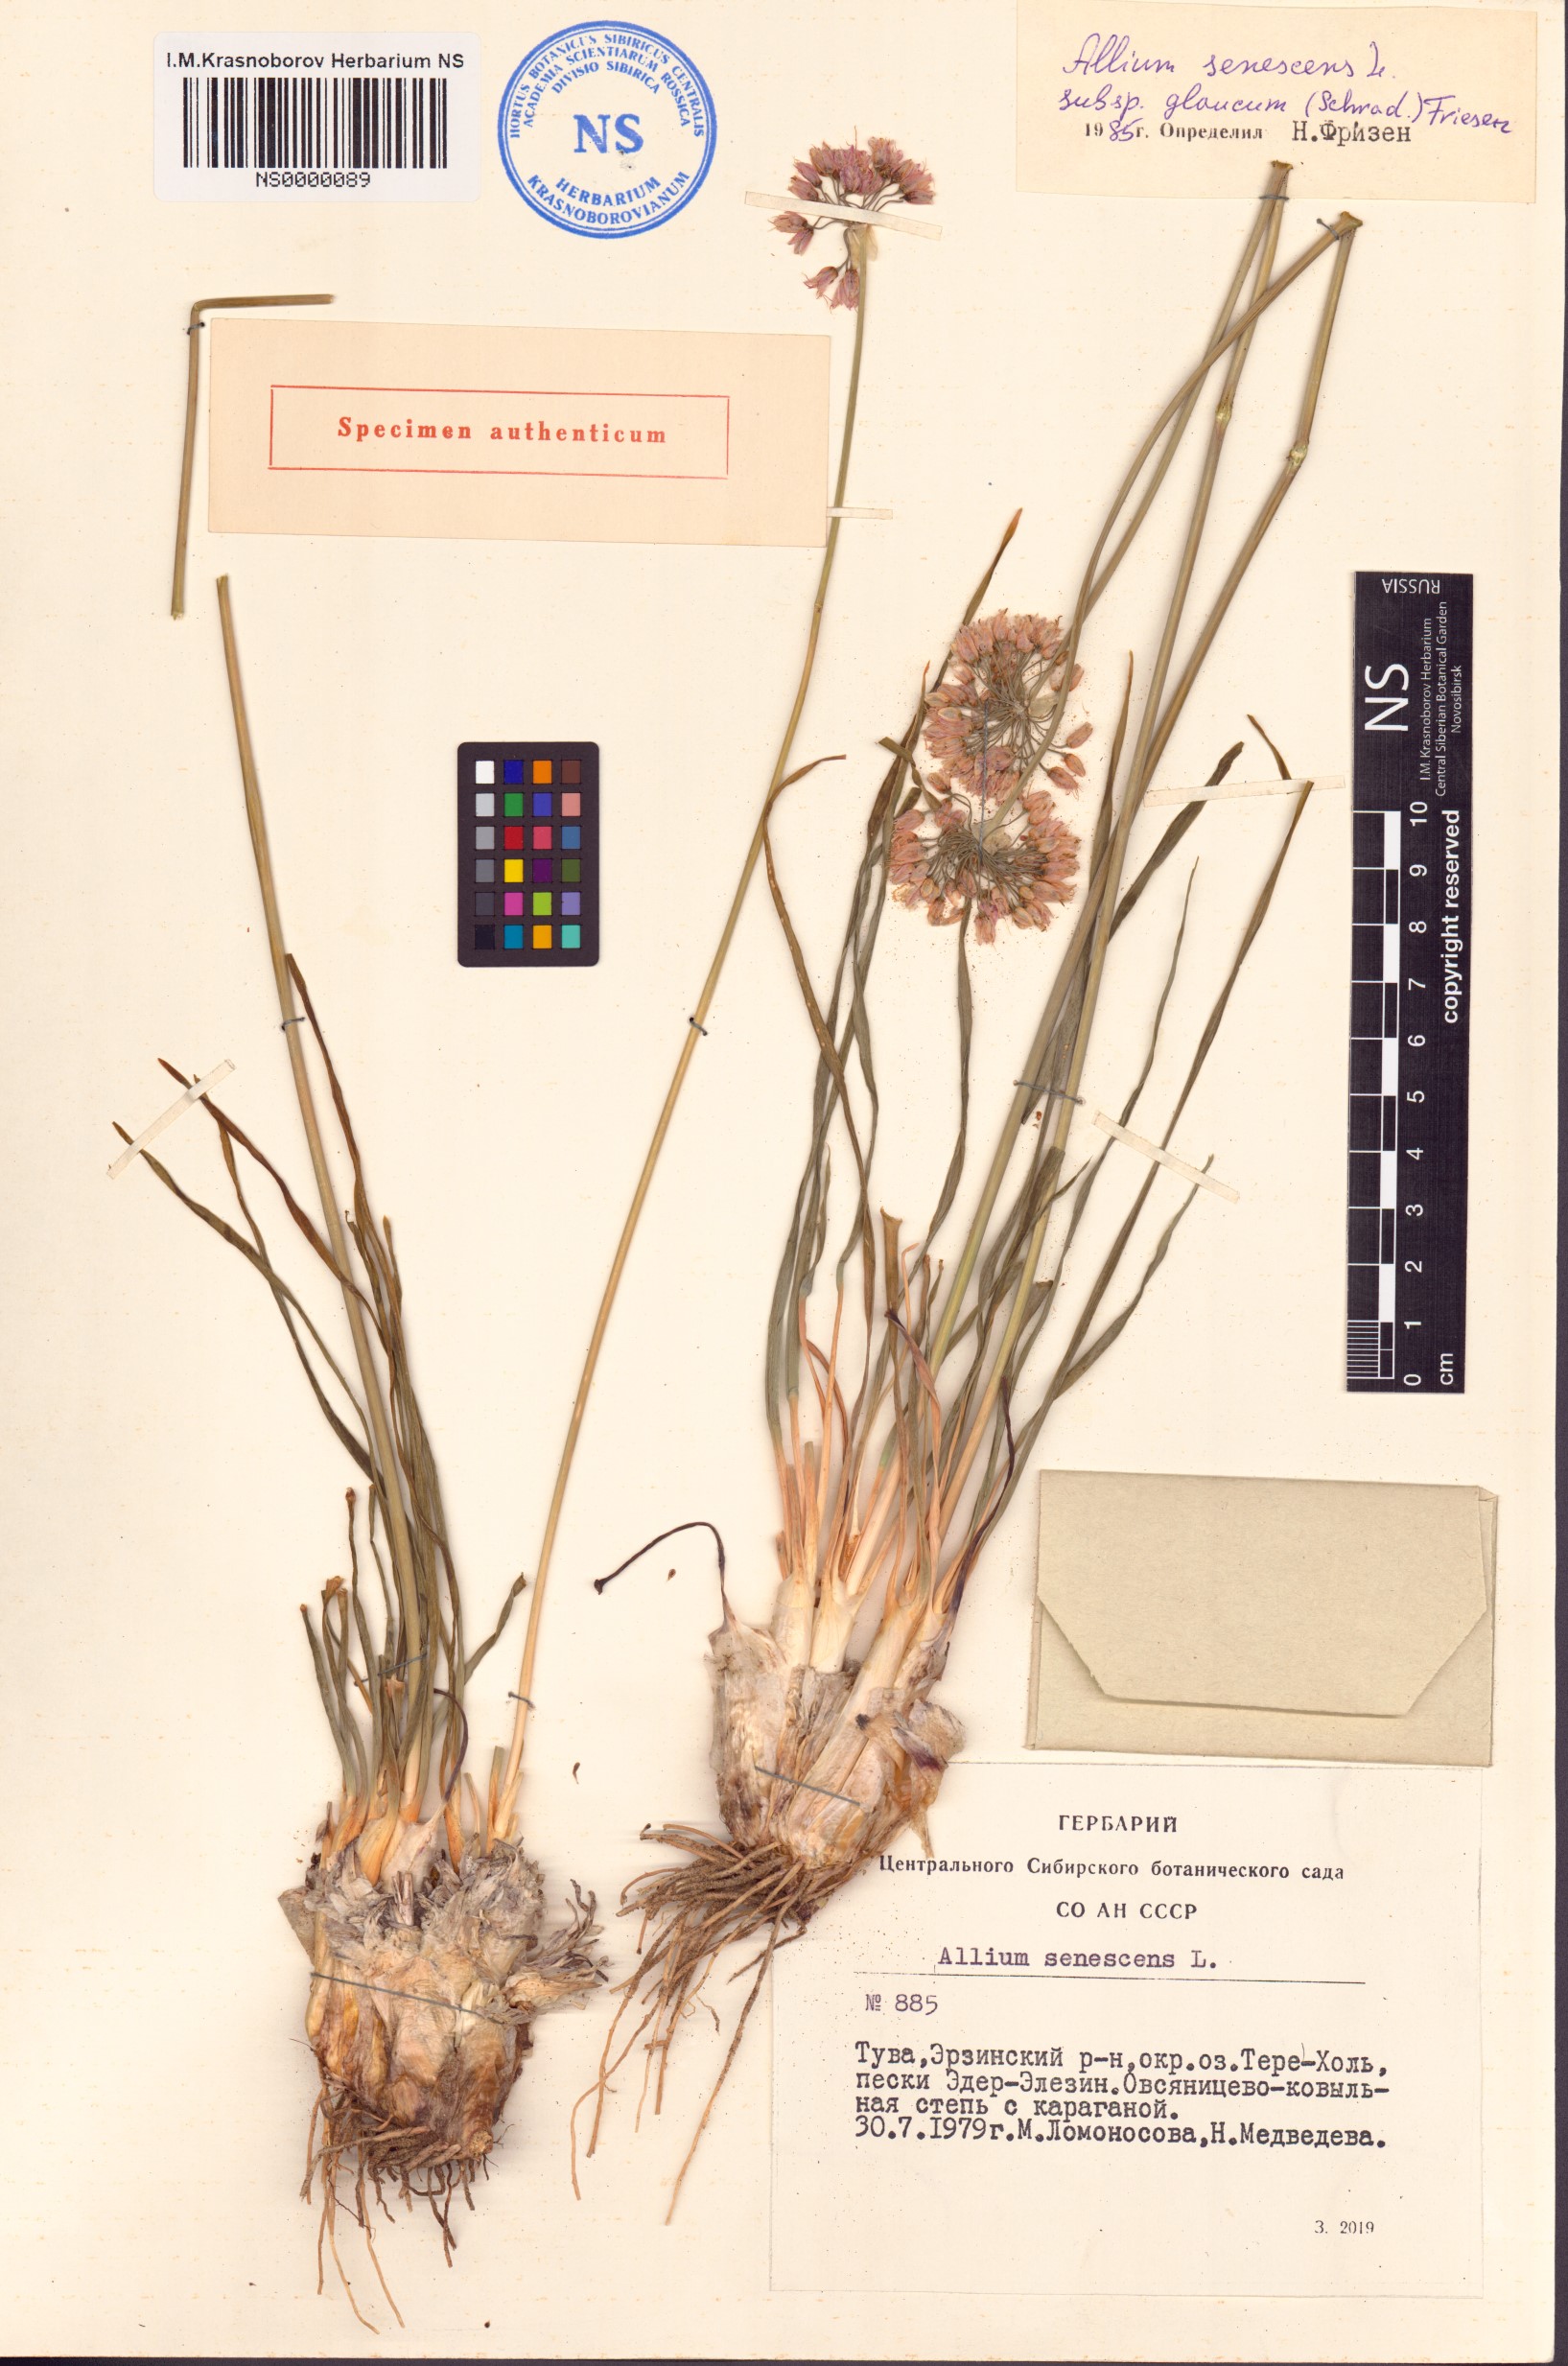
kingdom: Plantae
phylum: Tracheophyta
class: Liliopsida
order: Asparagales
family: Amaryllidaceae
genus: Allium
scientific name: Allium senescens
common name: German garlic
